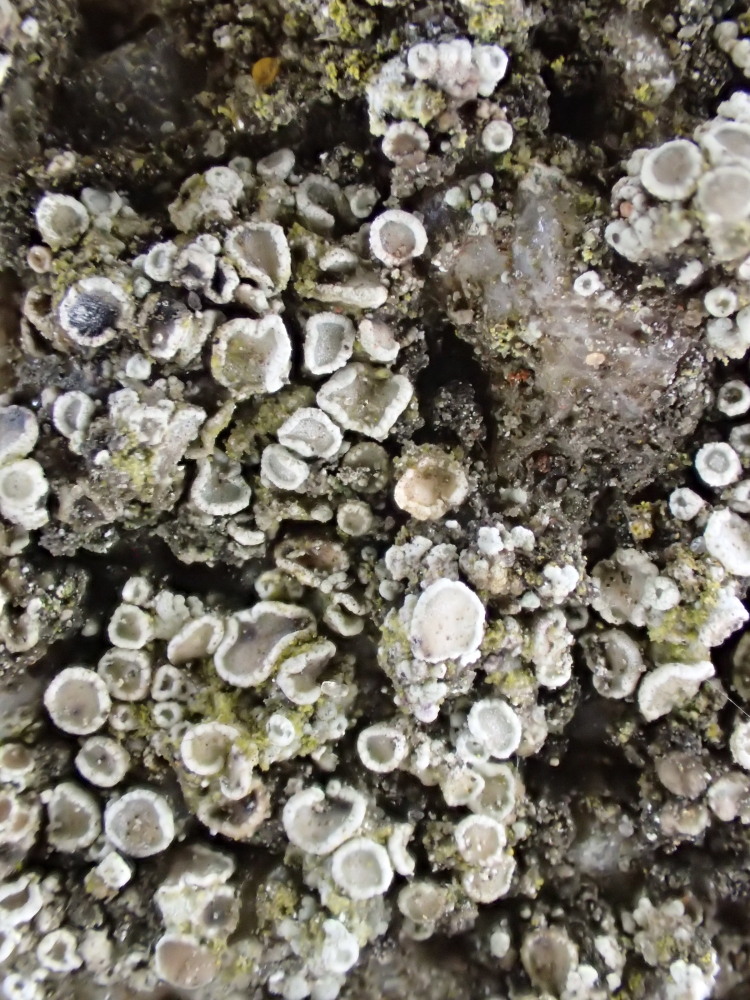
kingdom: Fungi
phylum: Ascomycota
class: Lecanoromycetes
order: Lecanorales
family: Lecanoraceae
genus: Lecanora
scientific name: Lecanora polytropa
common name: bleggrøn kantskivelav
